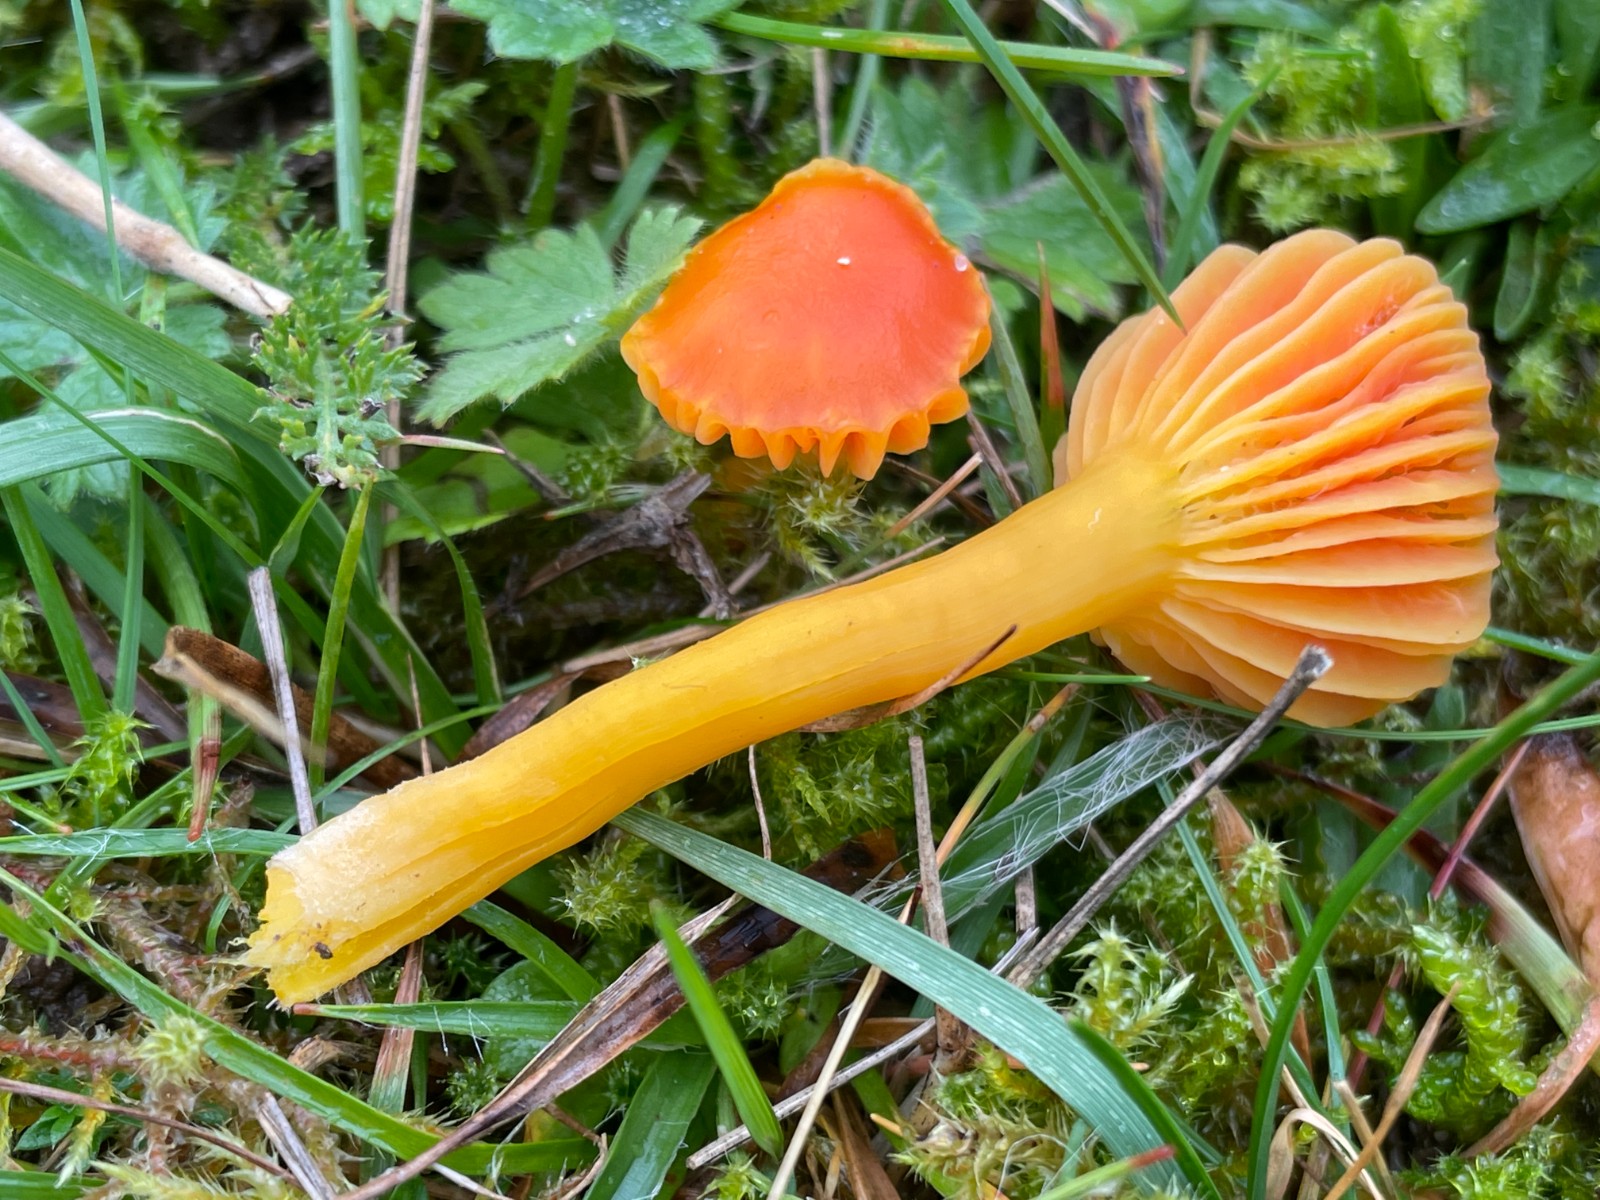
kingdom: Fungi
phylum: Basidiomycota
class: Agaricomycetes
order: Agaricales
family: Hygrophoraceae
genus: Hygrocybe
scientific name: Hygrocybe reidii
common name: honning-vokshat
